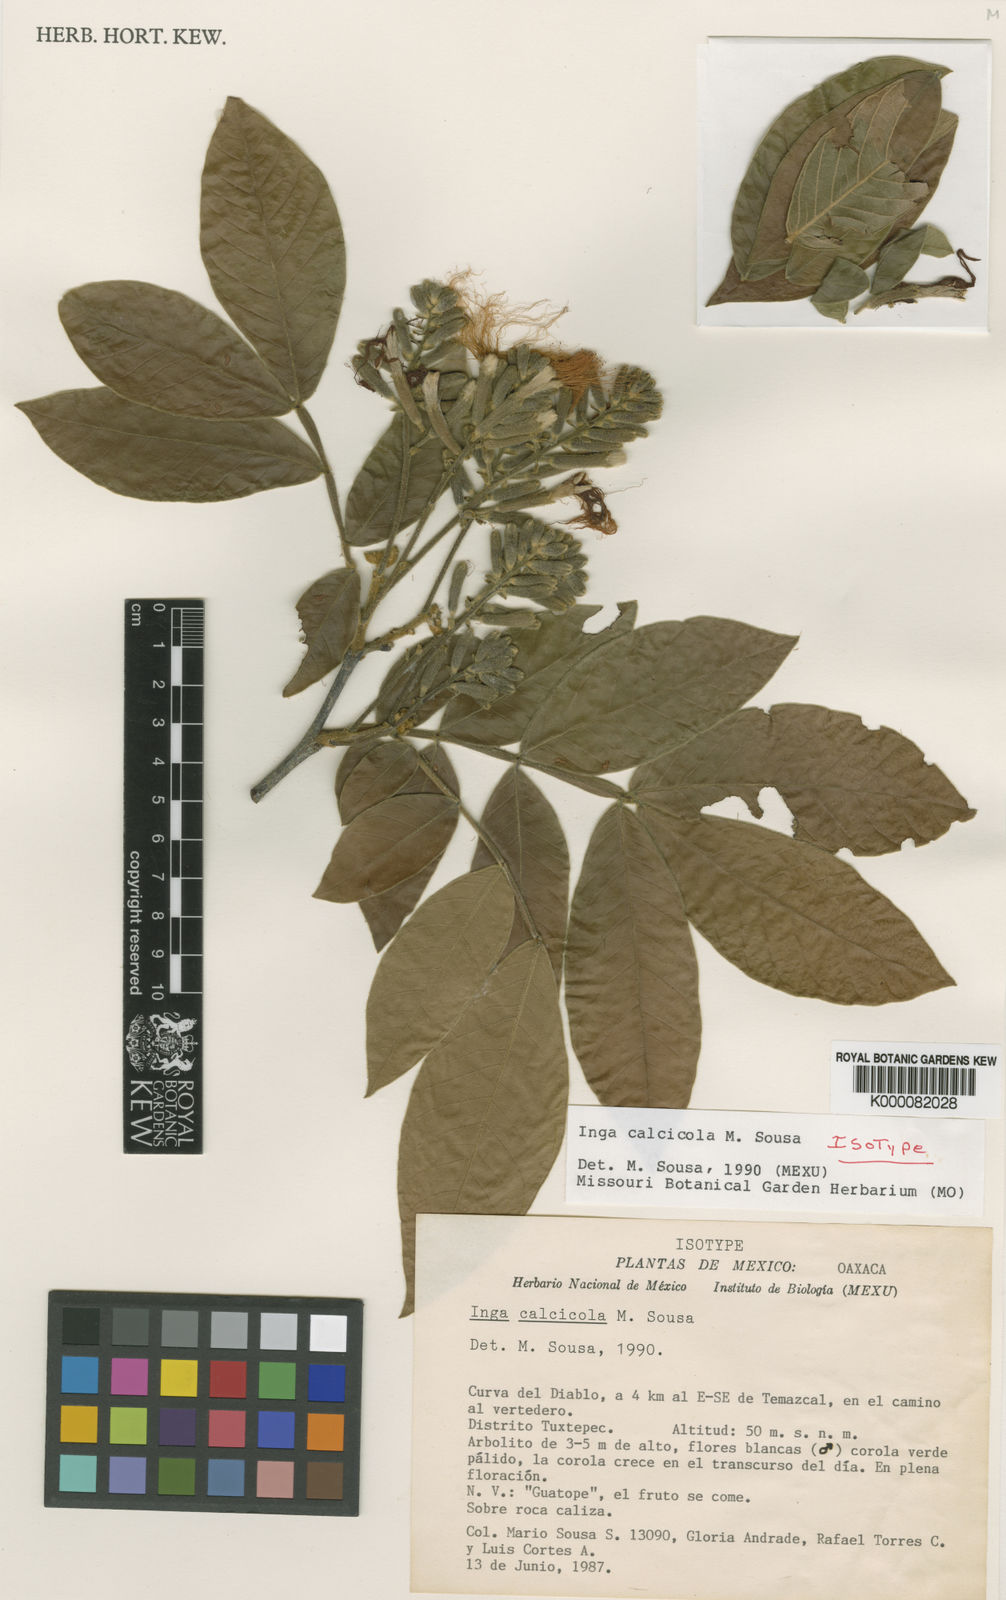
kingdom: Plantae
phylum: Tracheophyta
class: Magnoliopsida
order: Fabales
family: Fabaceae
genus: Inga
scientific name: Inga calcicola
